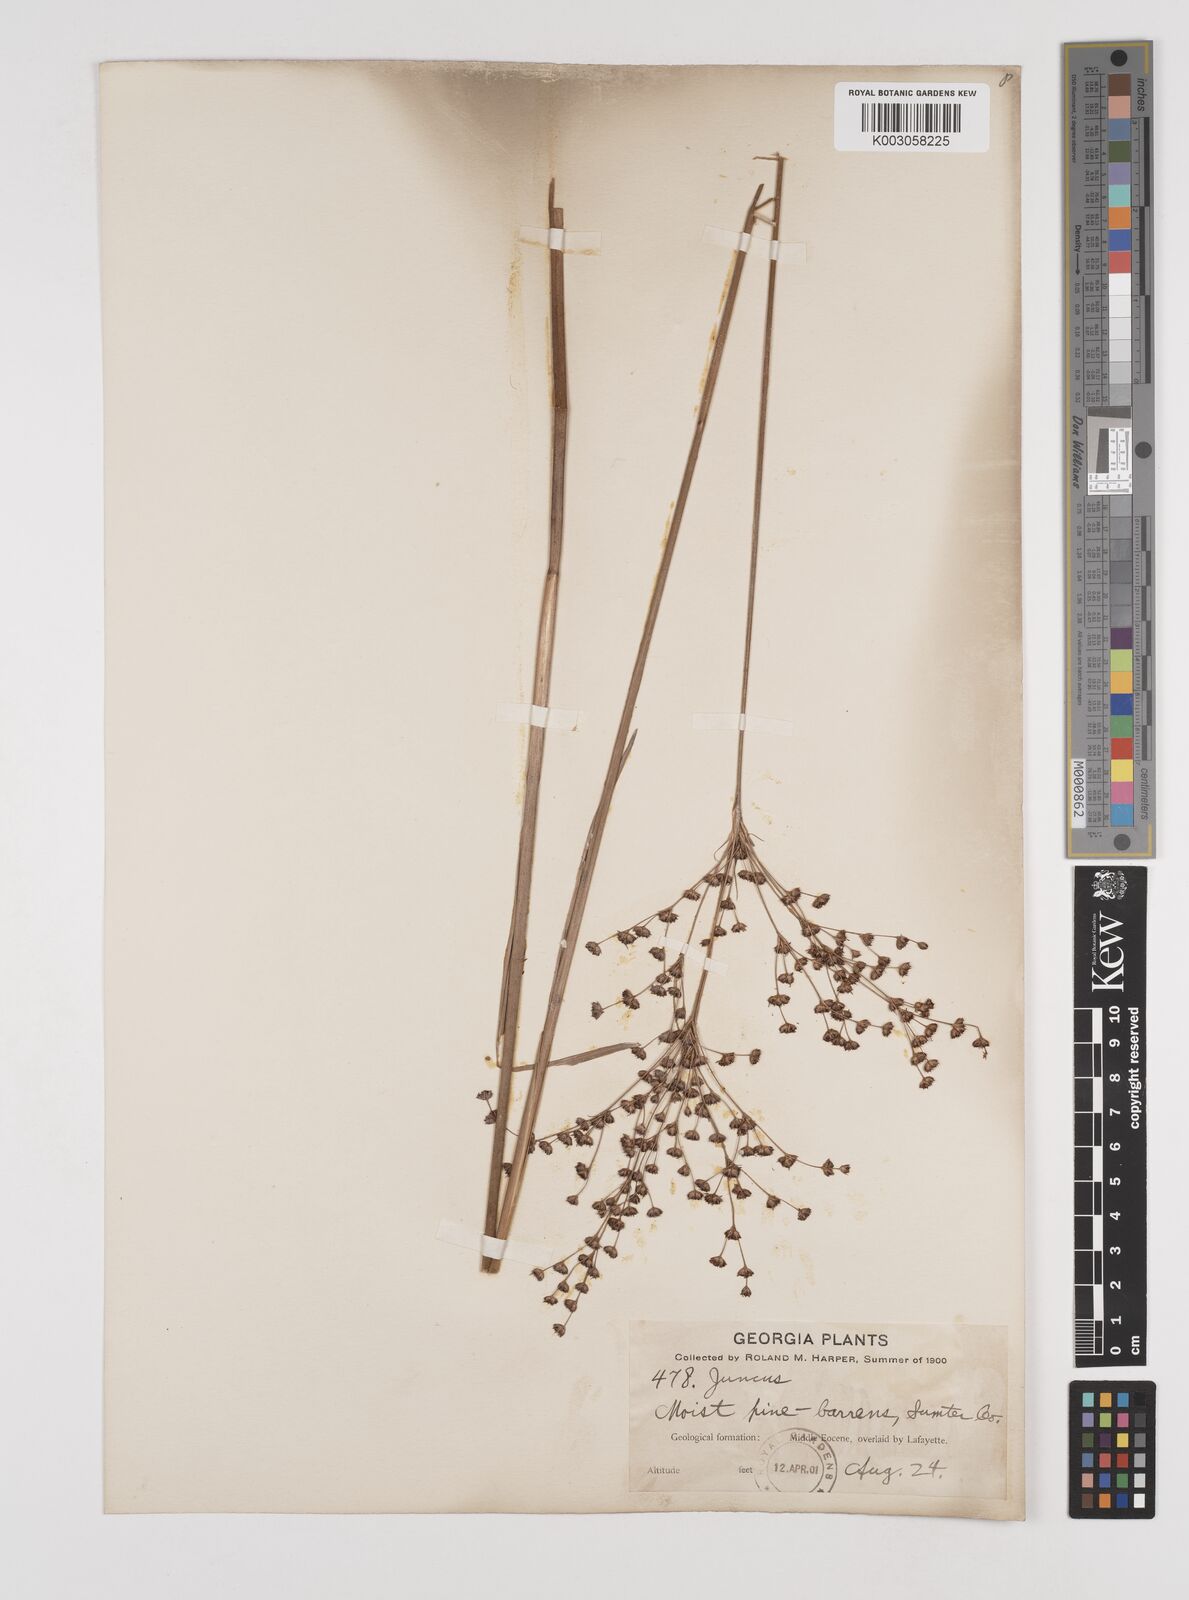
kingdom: Plantae
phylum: Tracheophyta
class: Liliopsida
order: Poales
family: Juncaceae
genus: Juncus
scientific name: Juncus
